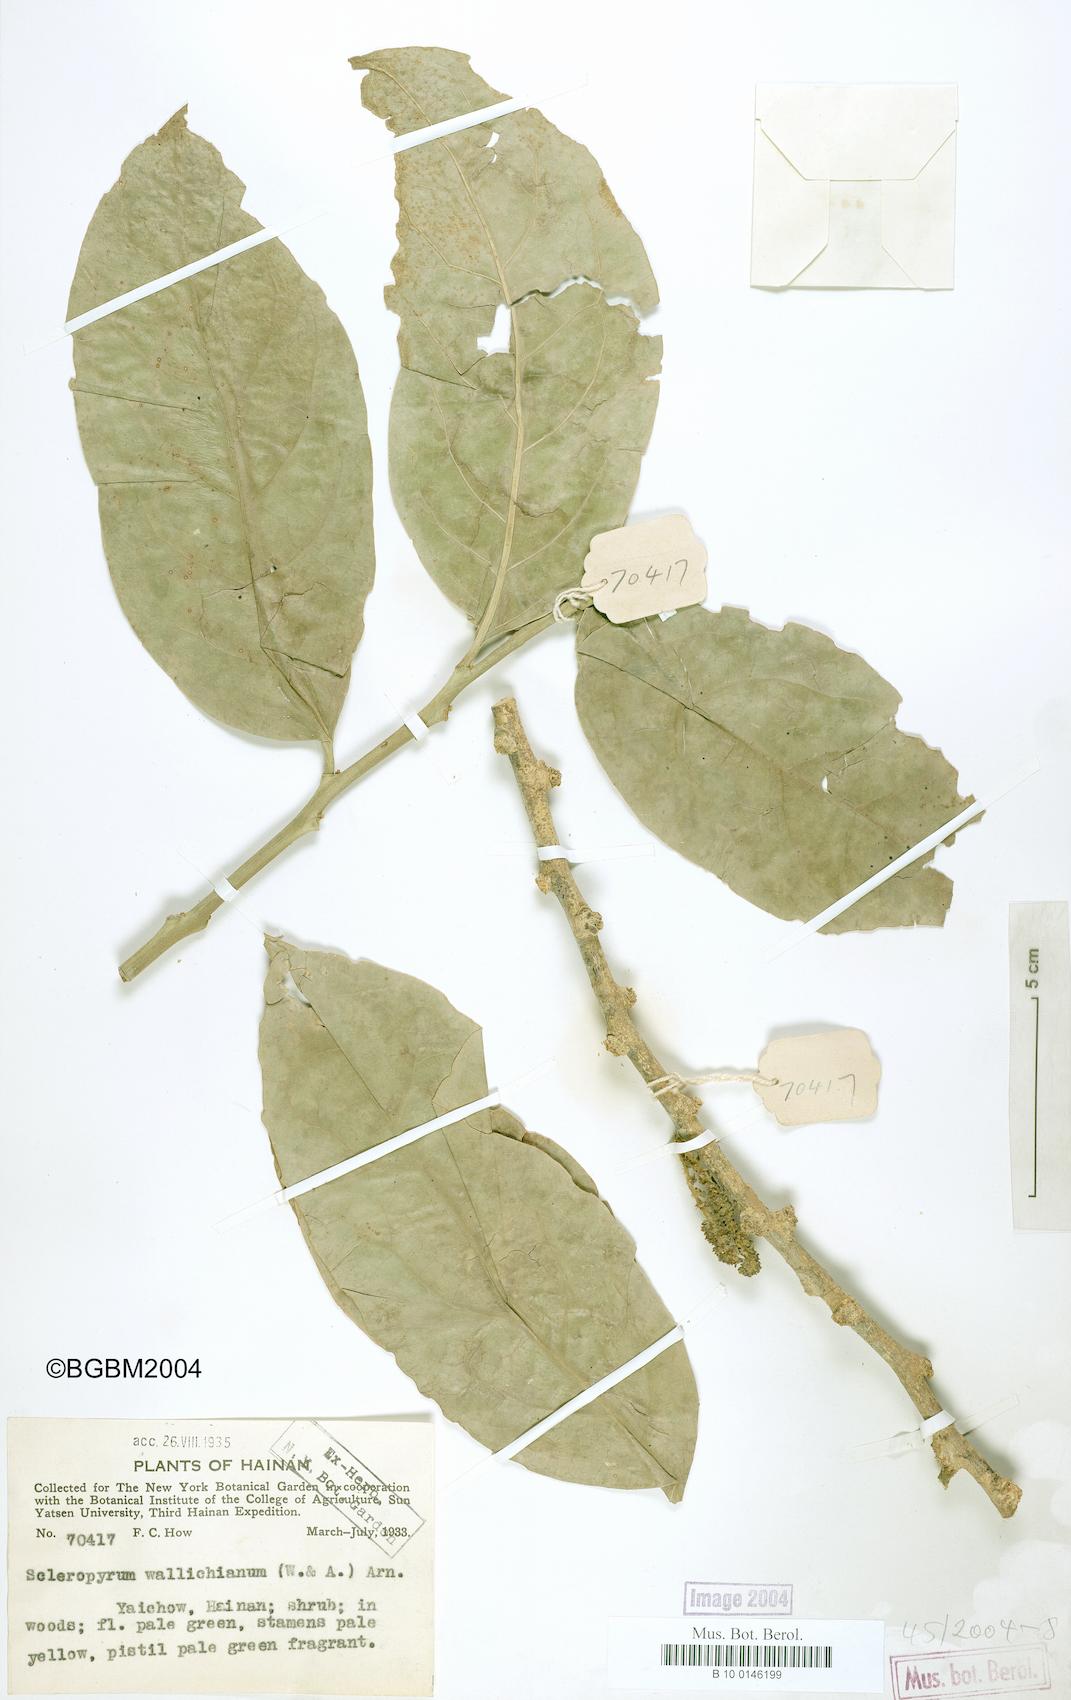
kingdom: Plantae
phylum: Tracheophyta
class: Magnoliopsida
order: Santalales
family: Cervantesiaceae
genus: Scleropyrum
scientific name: Scleropyrum pentandrum
